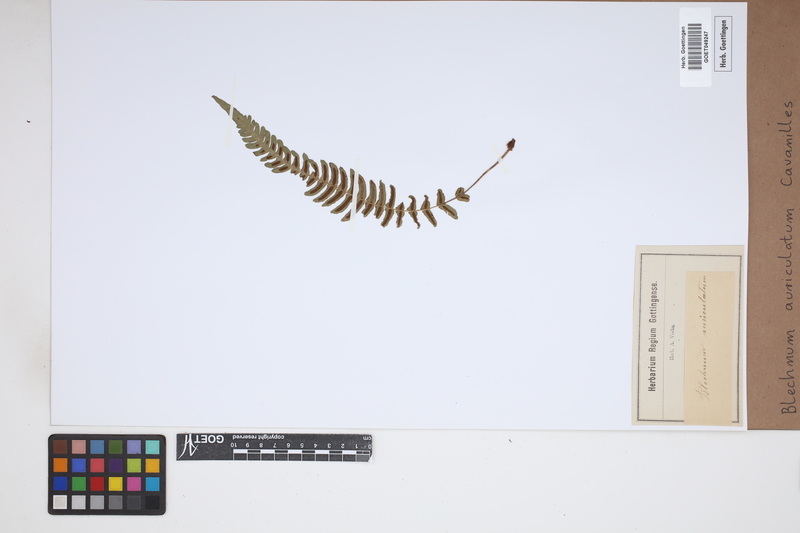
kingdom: Plantae
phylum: Tracheophyta
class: Polypodiopsida
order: Polypodiales
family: Blechnaceae
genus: Blechnum
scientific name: Blechnum auriculatum
